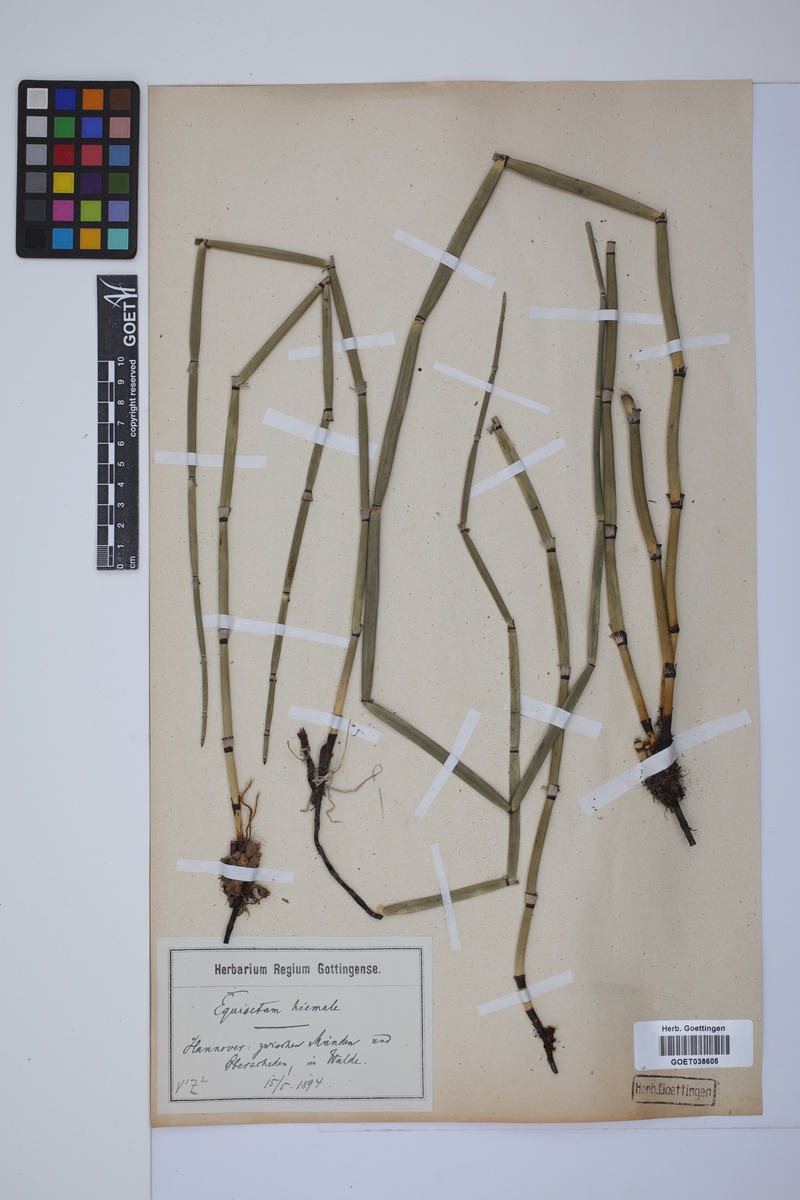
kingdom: Plantae
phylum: Tracheophyta
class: Polypodiopsida
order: Equisetales
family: Equisetaceae
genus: Equisetum
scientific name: Equisetum hyemale
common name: Rough horsetail
